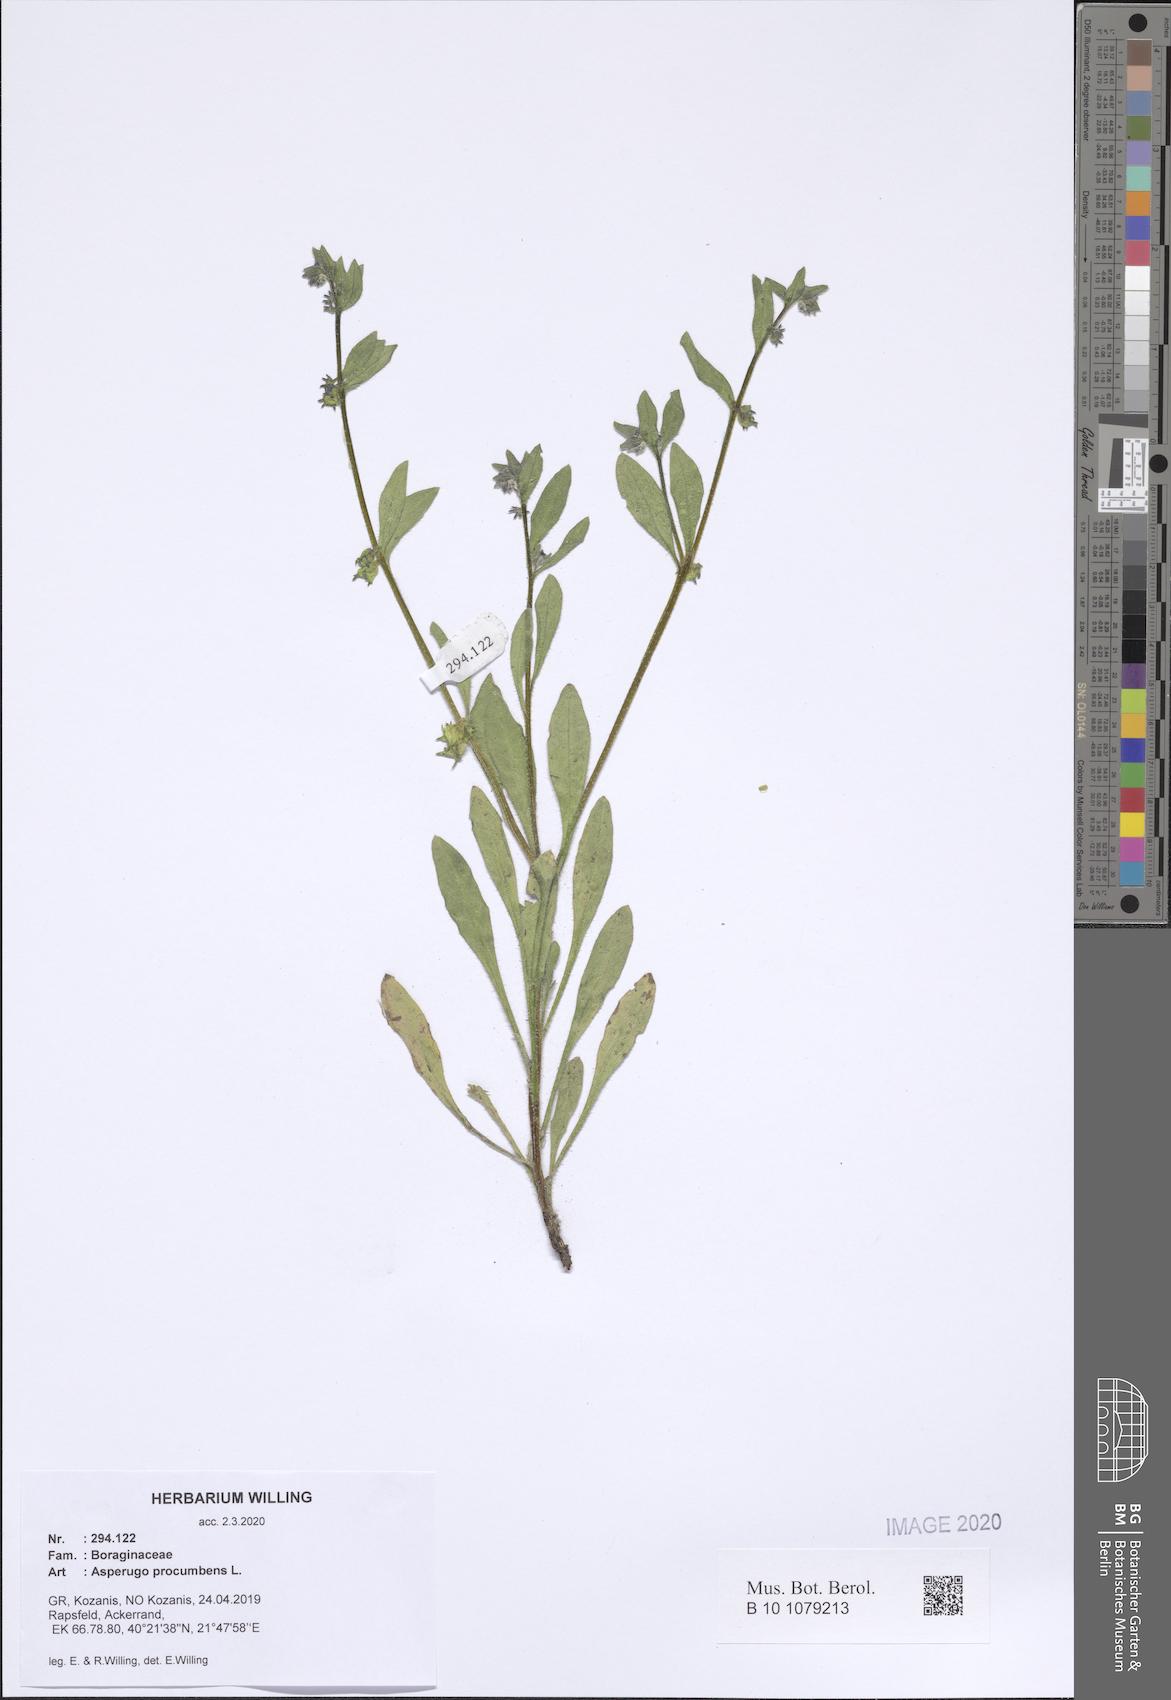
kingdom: Plantae
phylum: Tracheophyta
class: Magnoliopsida
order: Boraginales
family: Boraginaceae
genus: Asperugo
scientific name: Asperugo procumbens
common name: Madwort
